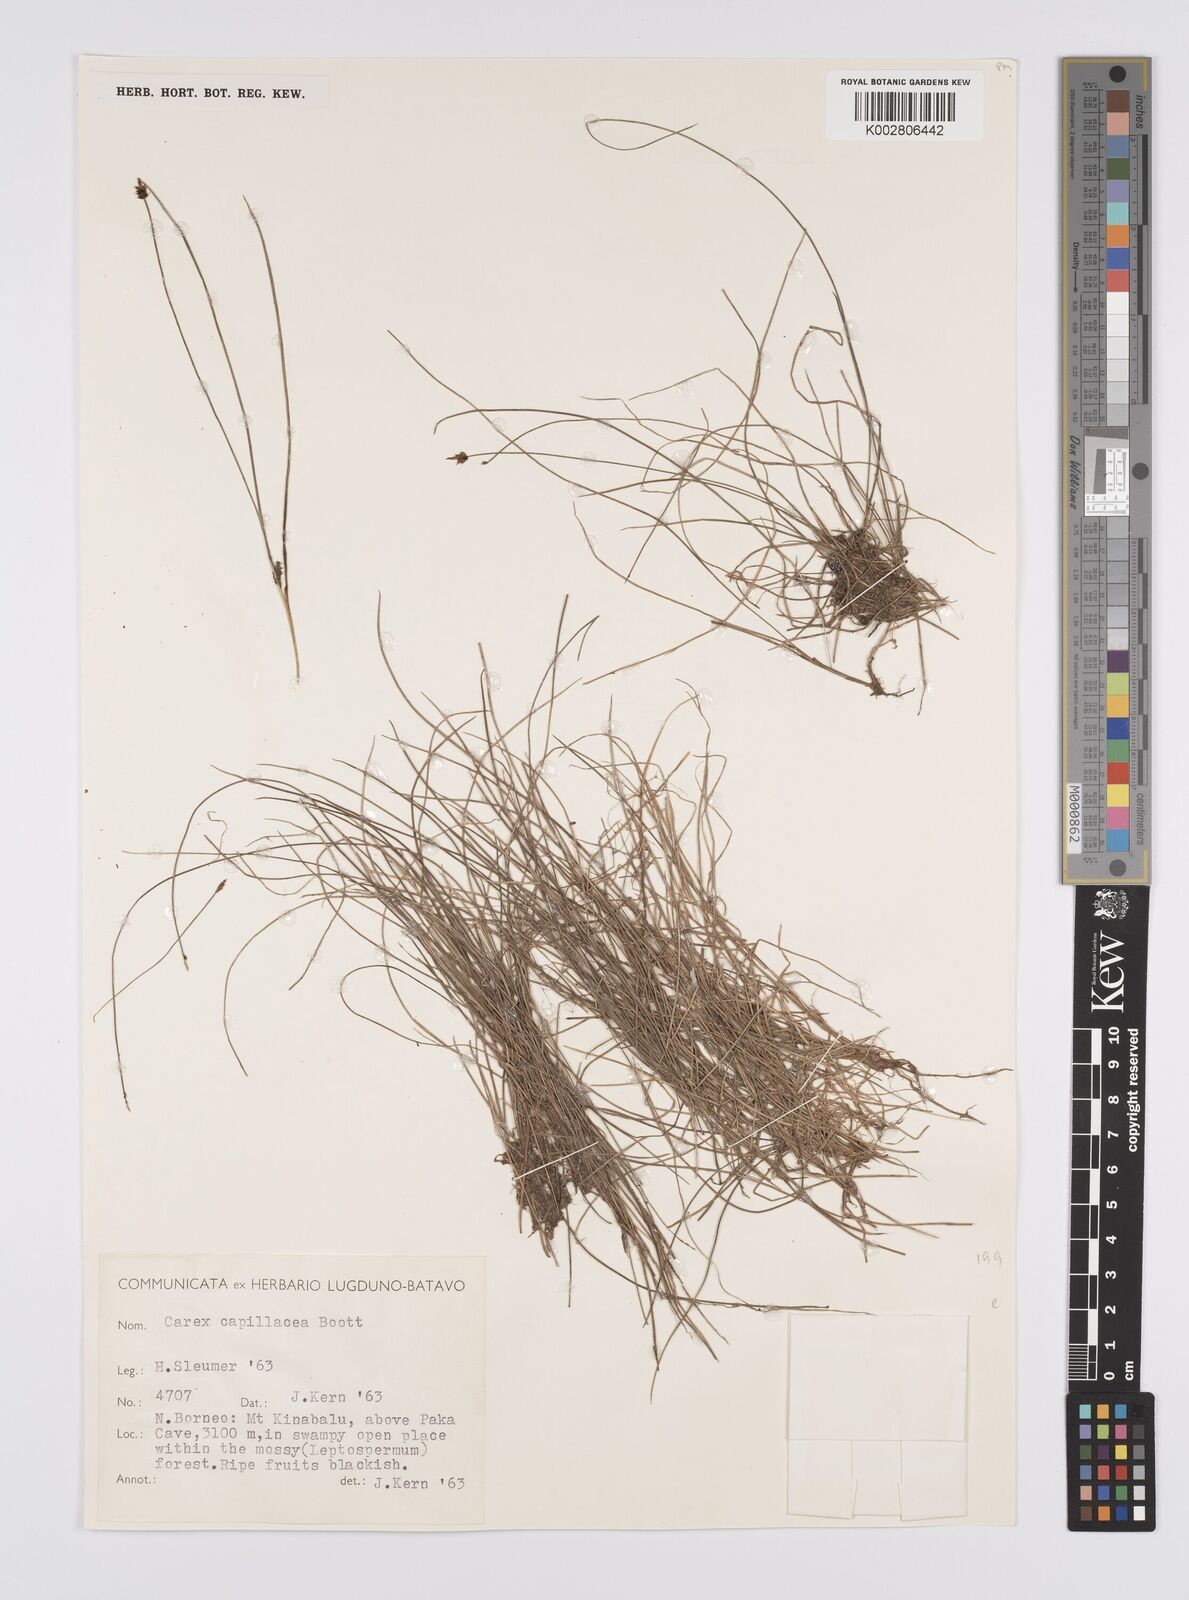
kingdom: Plantae
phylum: Tracheophyta
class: Liliopsida
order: Poales
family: Cyperaceae
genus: Carex
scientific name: Carex capillacea
